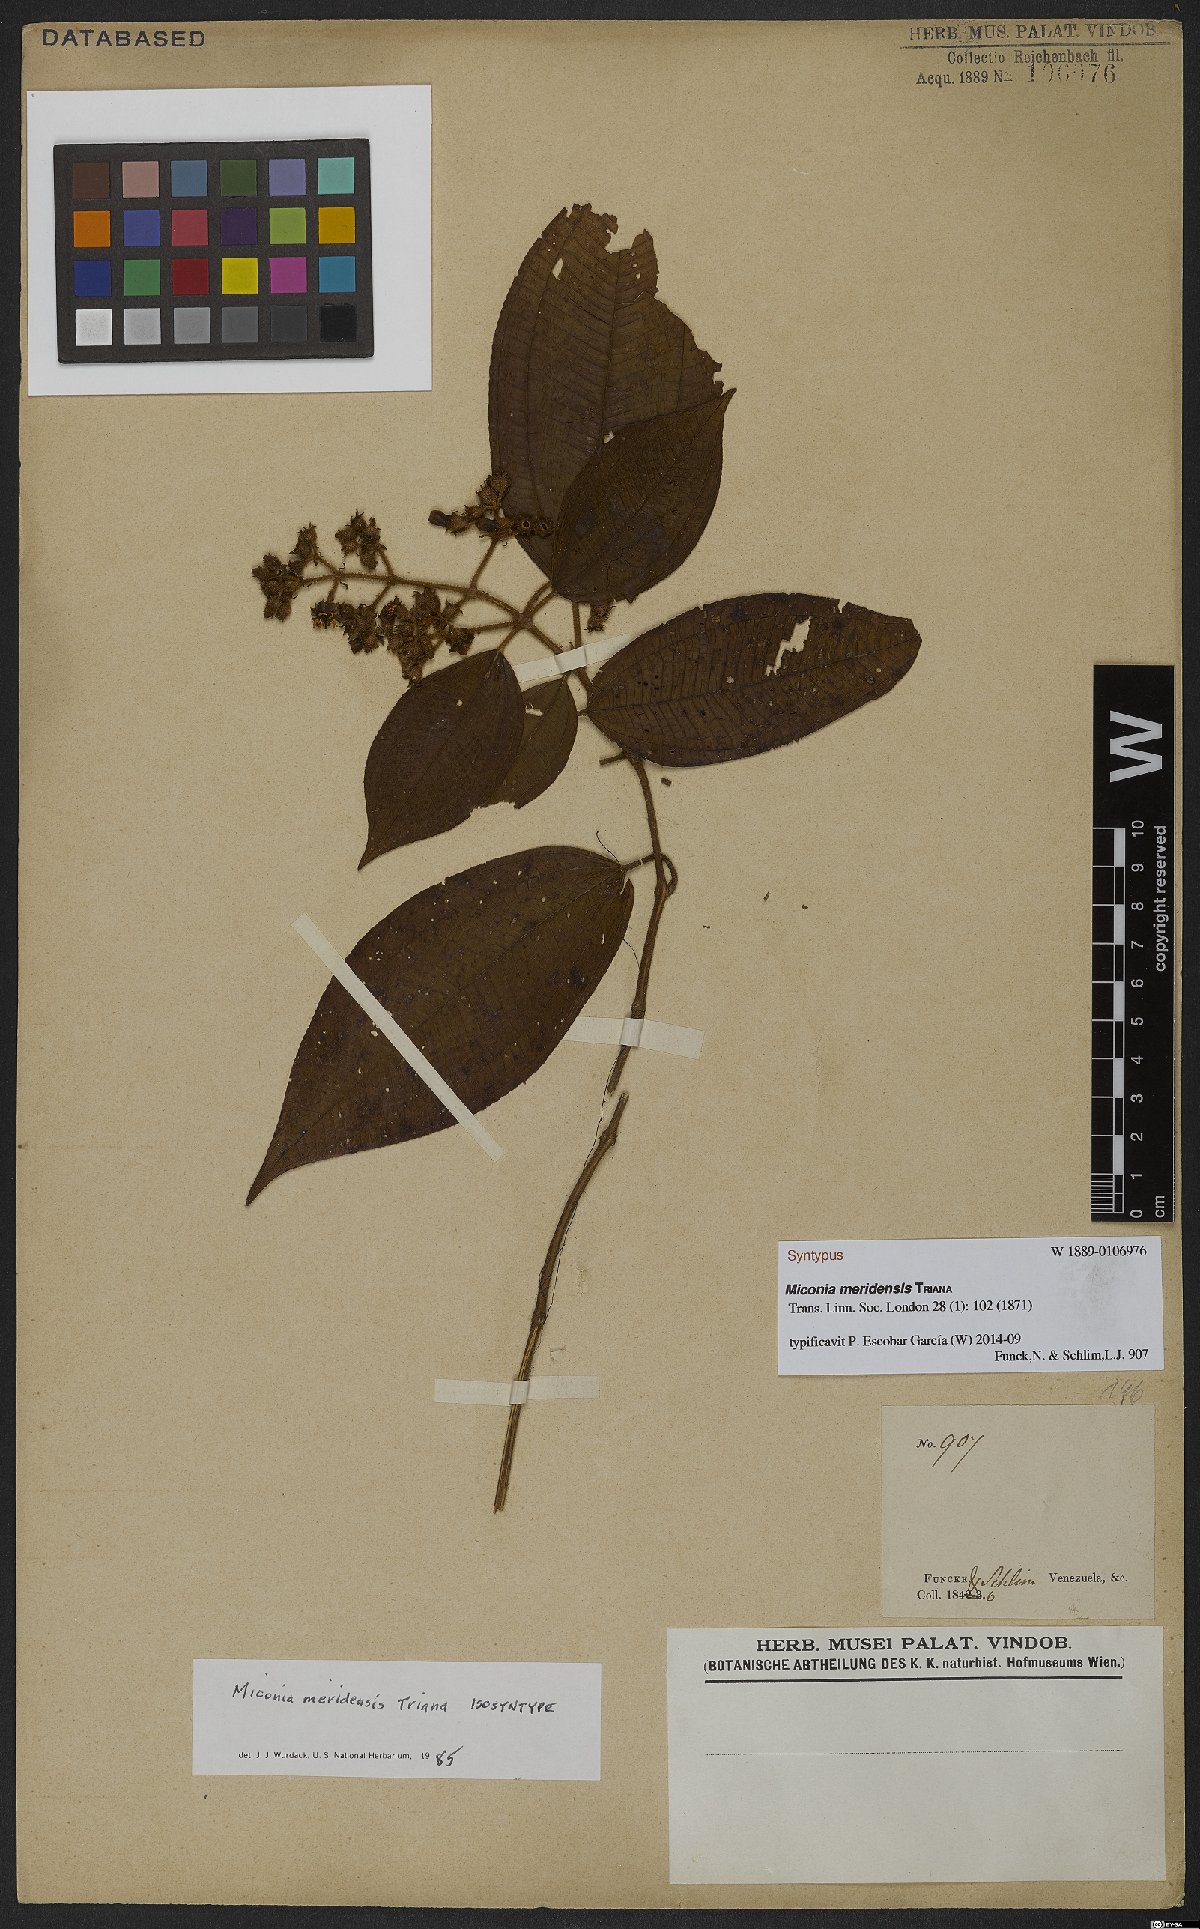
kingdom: Plantae
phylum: Tracheophyta
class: Magnoliopsida
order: Myrtales
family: Melastomataceae
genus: Miconia
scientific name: Miconia meridensis
